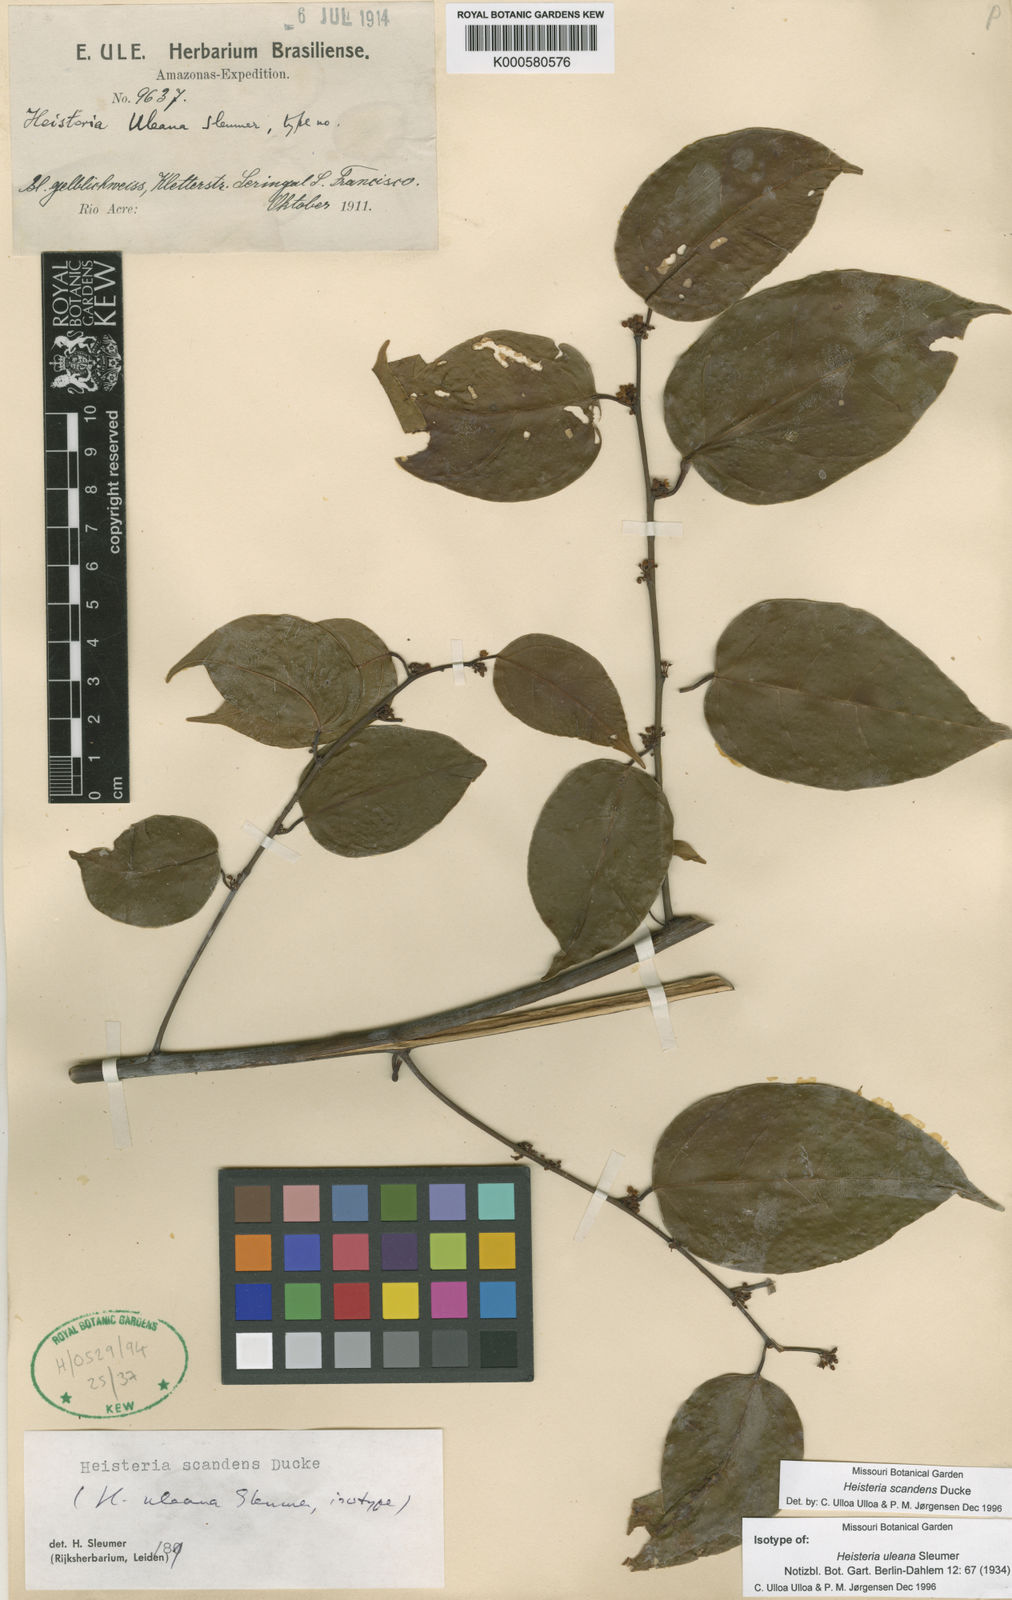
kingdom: Plantae
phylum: Tracheophyta
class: Magnoliopsida
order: Santalales
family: Erythropalaceae
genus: Heisteria
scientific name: Heisteria scandens
